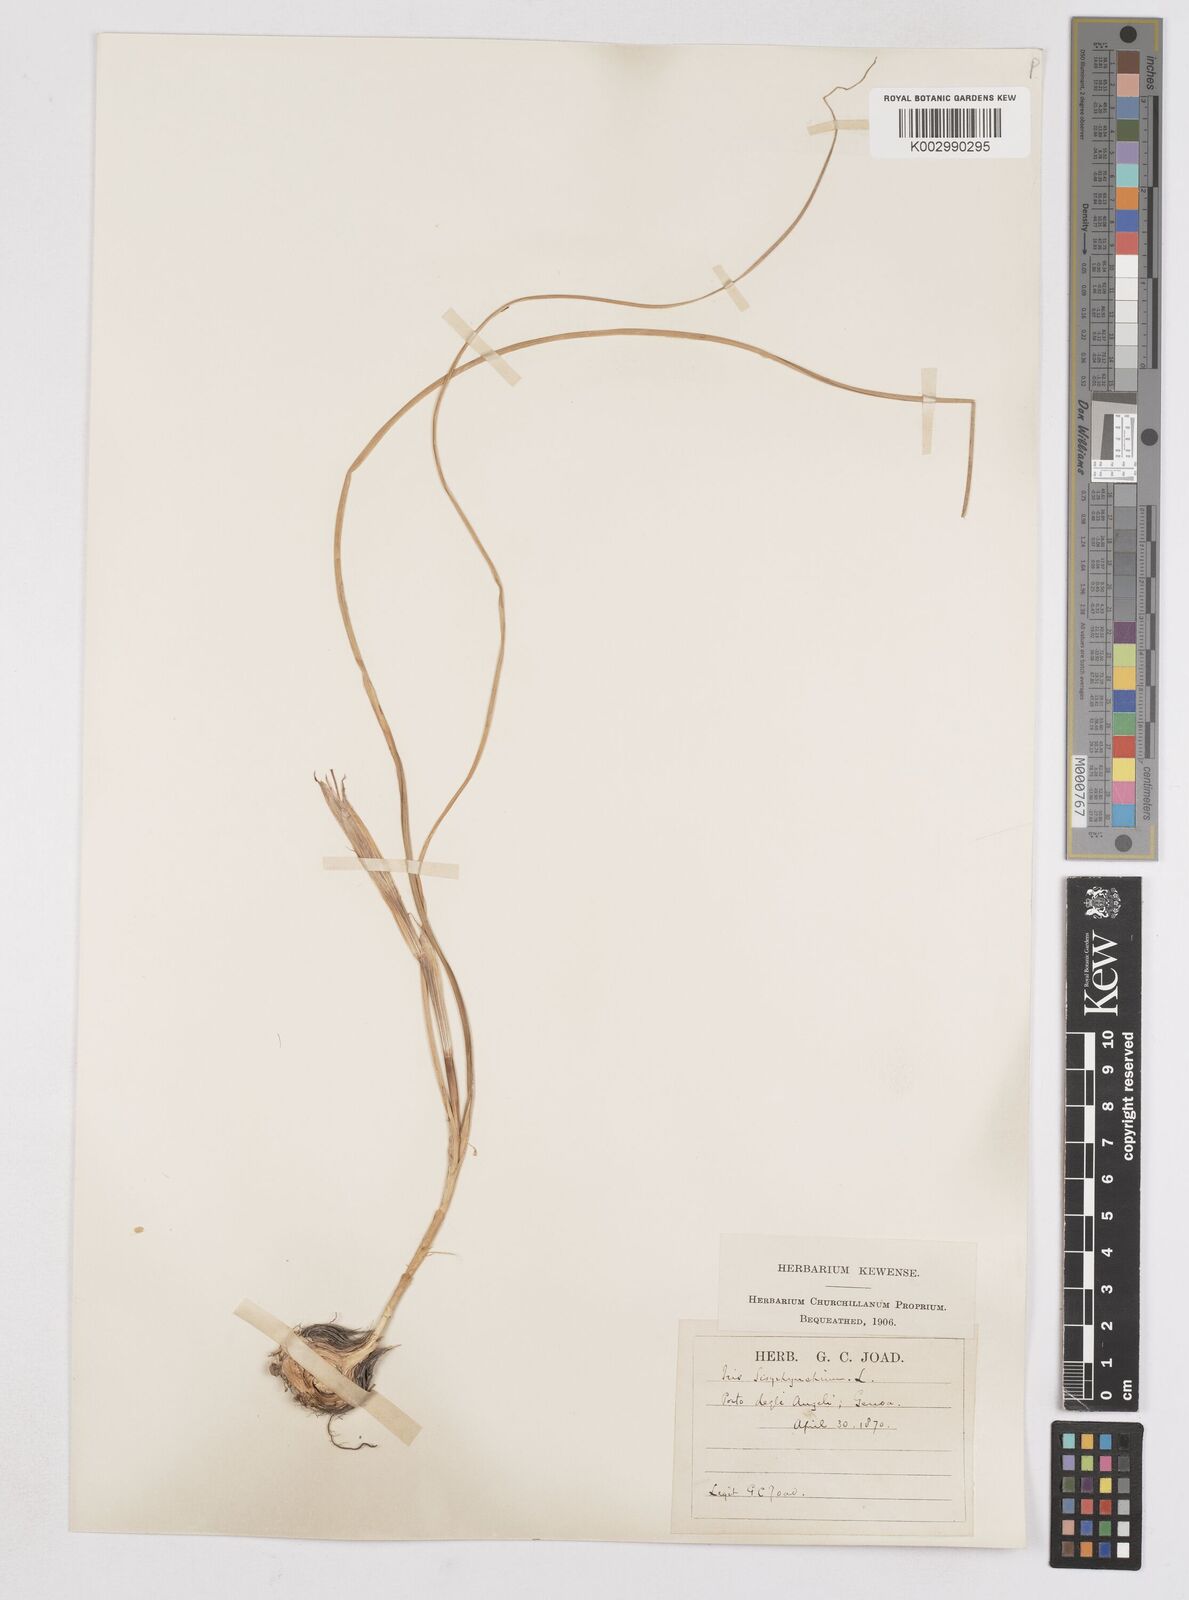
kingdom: Plantae
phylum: Tracheophyta
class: Liliopsida
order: Asparagales
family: Iridaceae
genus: Moraea
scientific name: Moraea sisyrinchium
